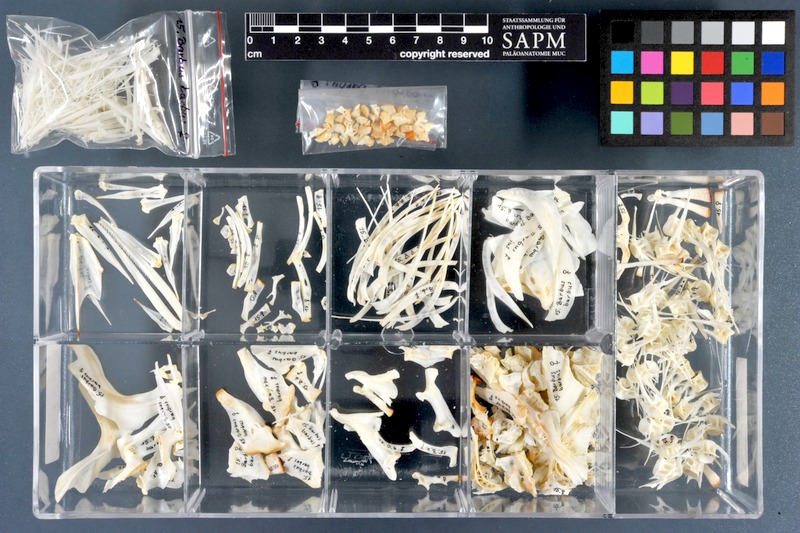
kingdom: Animalia
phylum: Chordata
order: Cypriniformes
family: Cyprinidae
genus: Barbus
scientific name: Barbus barbus
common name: Barbel
